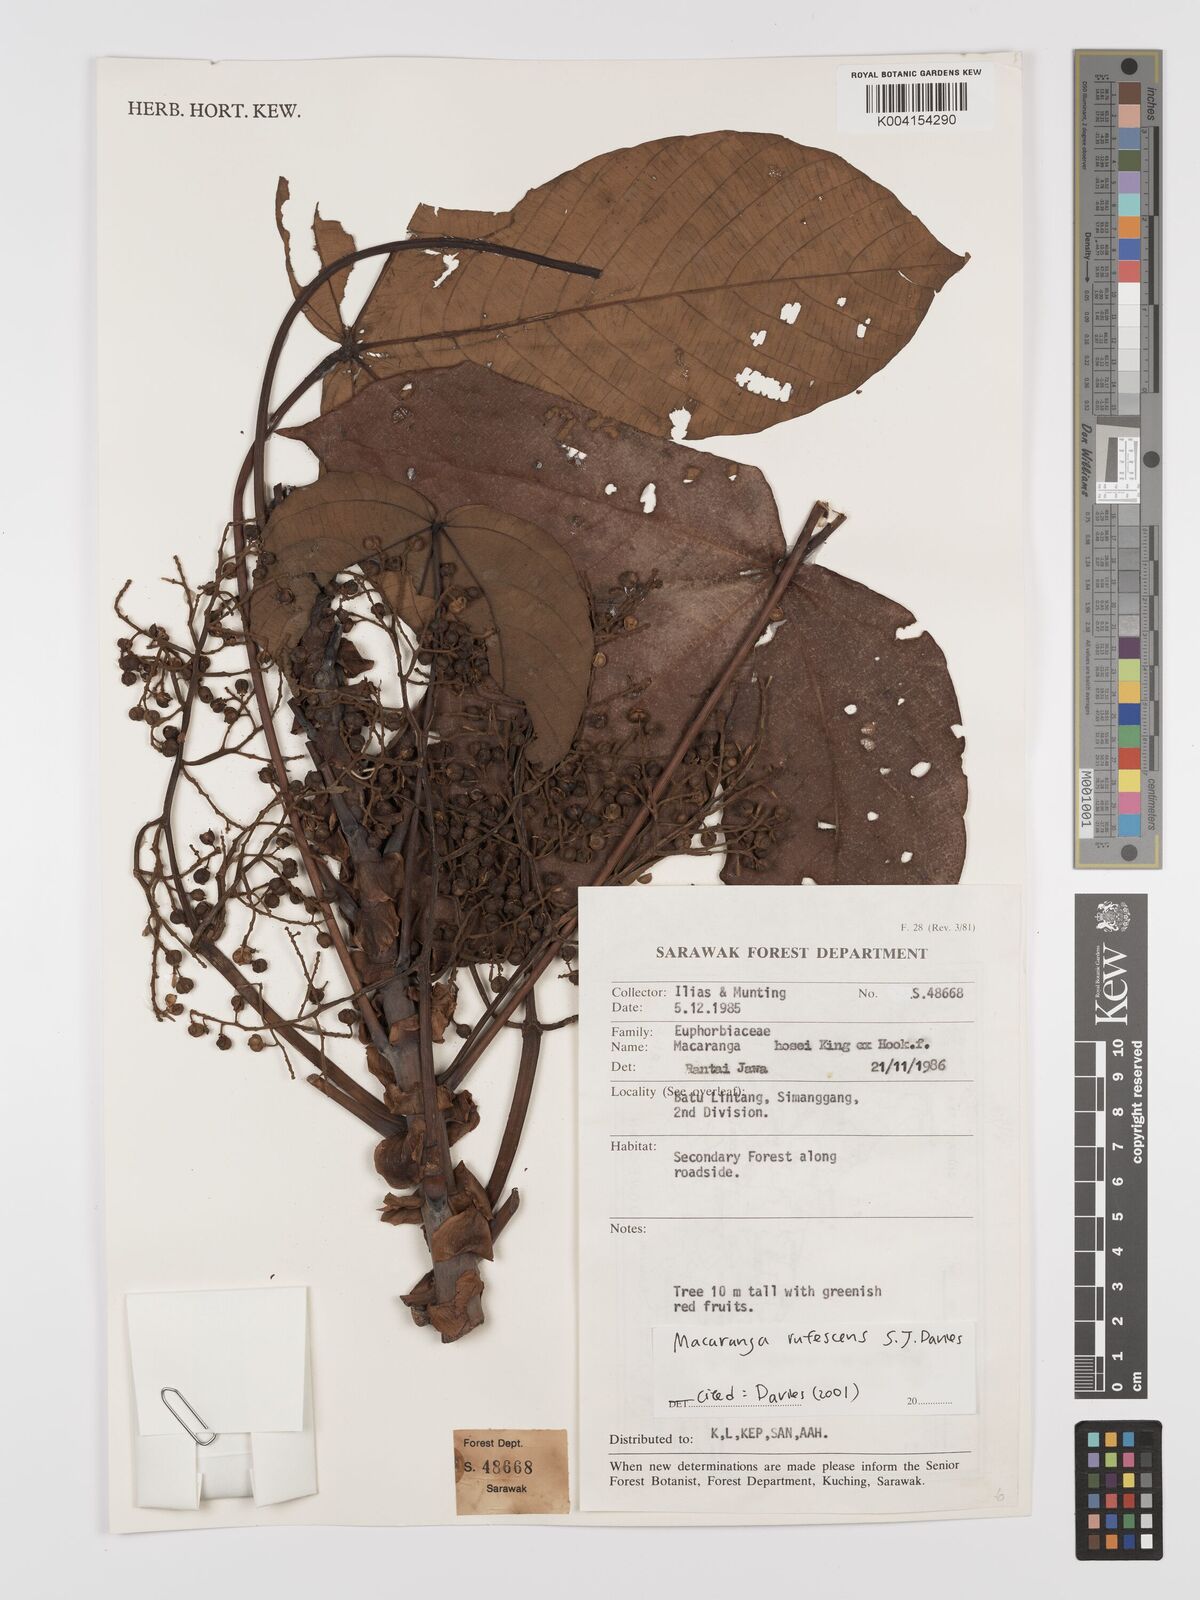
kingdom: Plantae
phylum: Tracheophyta
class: Magnoliopsida
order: Malpighiales
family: Euphorbiaceae
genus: Macaranga
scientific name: Macaranga rufescens
